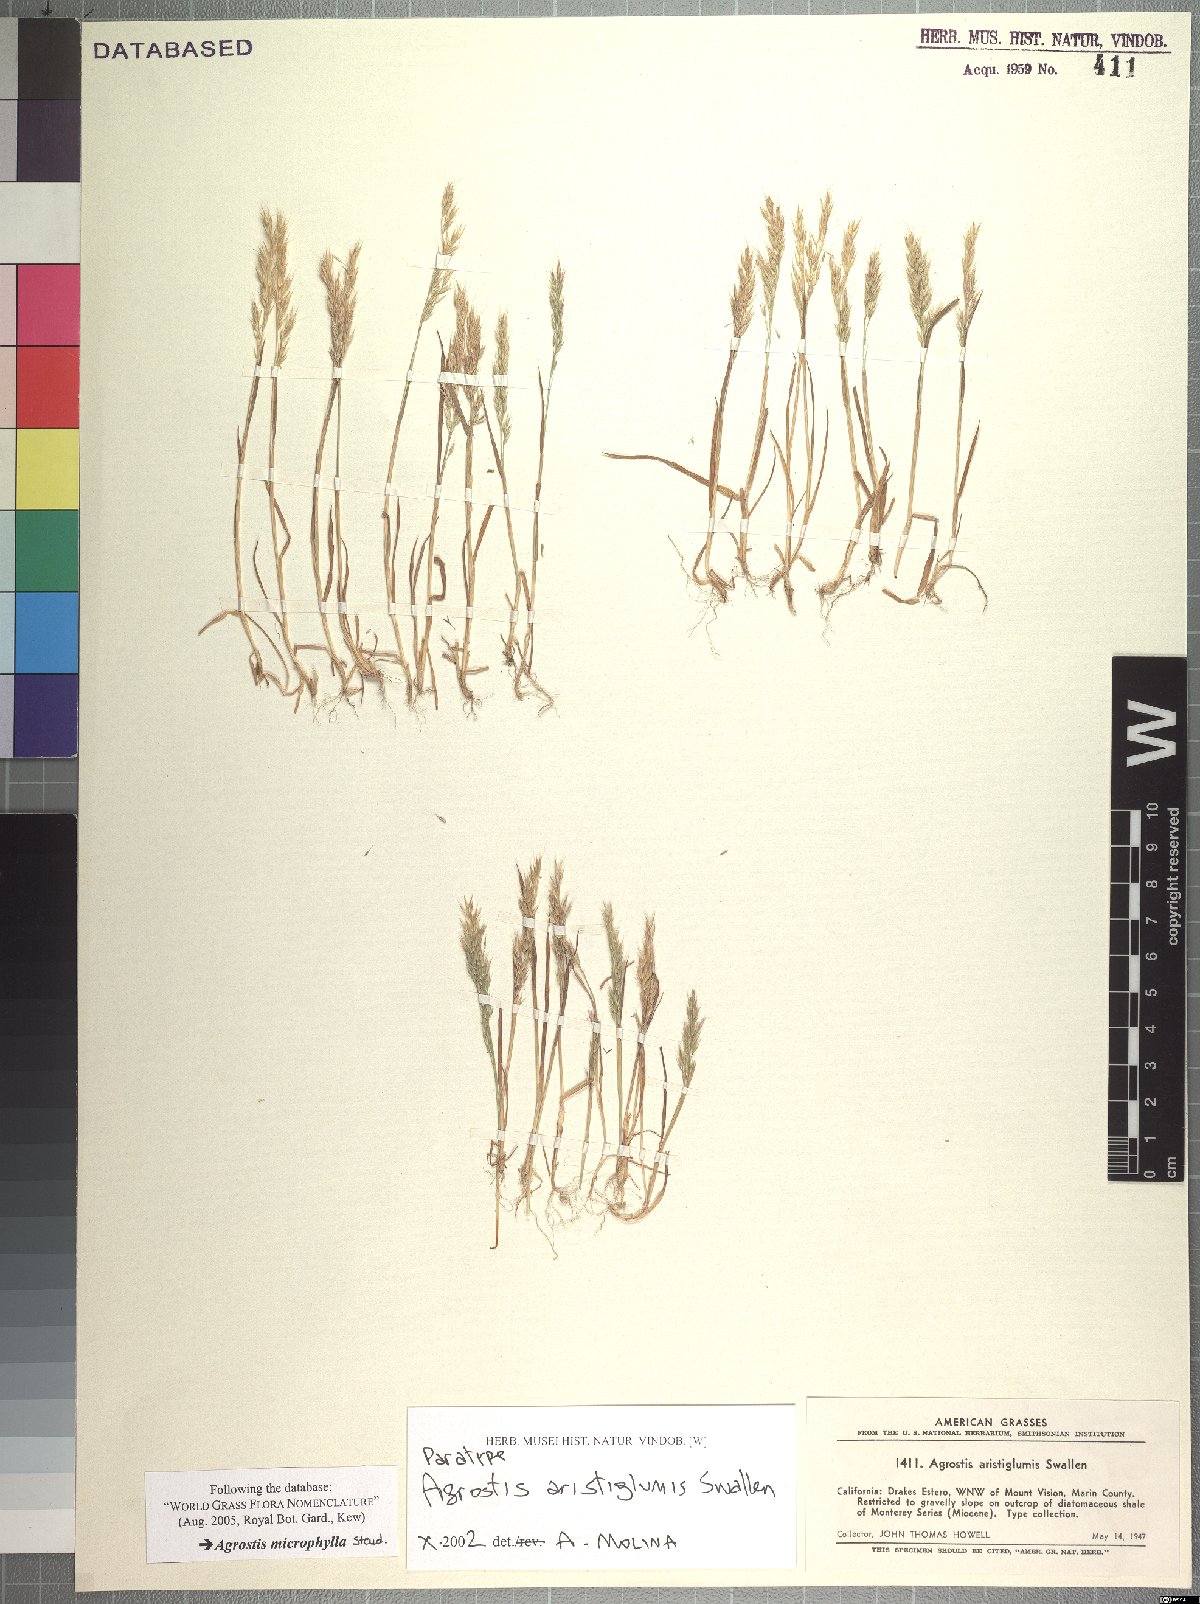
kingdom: Plantae
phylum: Tracheophyta
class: Liliopsida
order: Poales
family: Poaceae
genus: Agrostis
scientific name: Agrostis microphylla
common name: Small-leaf bent
